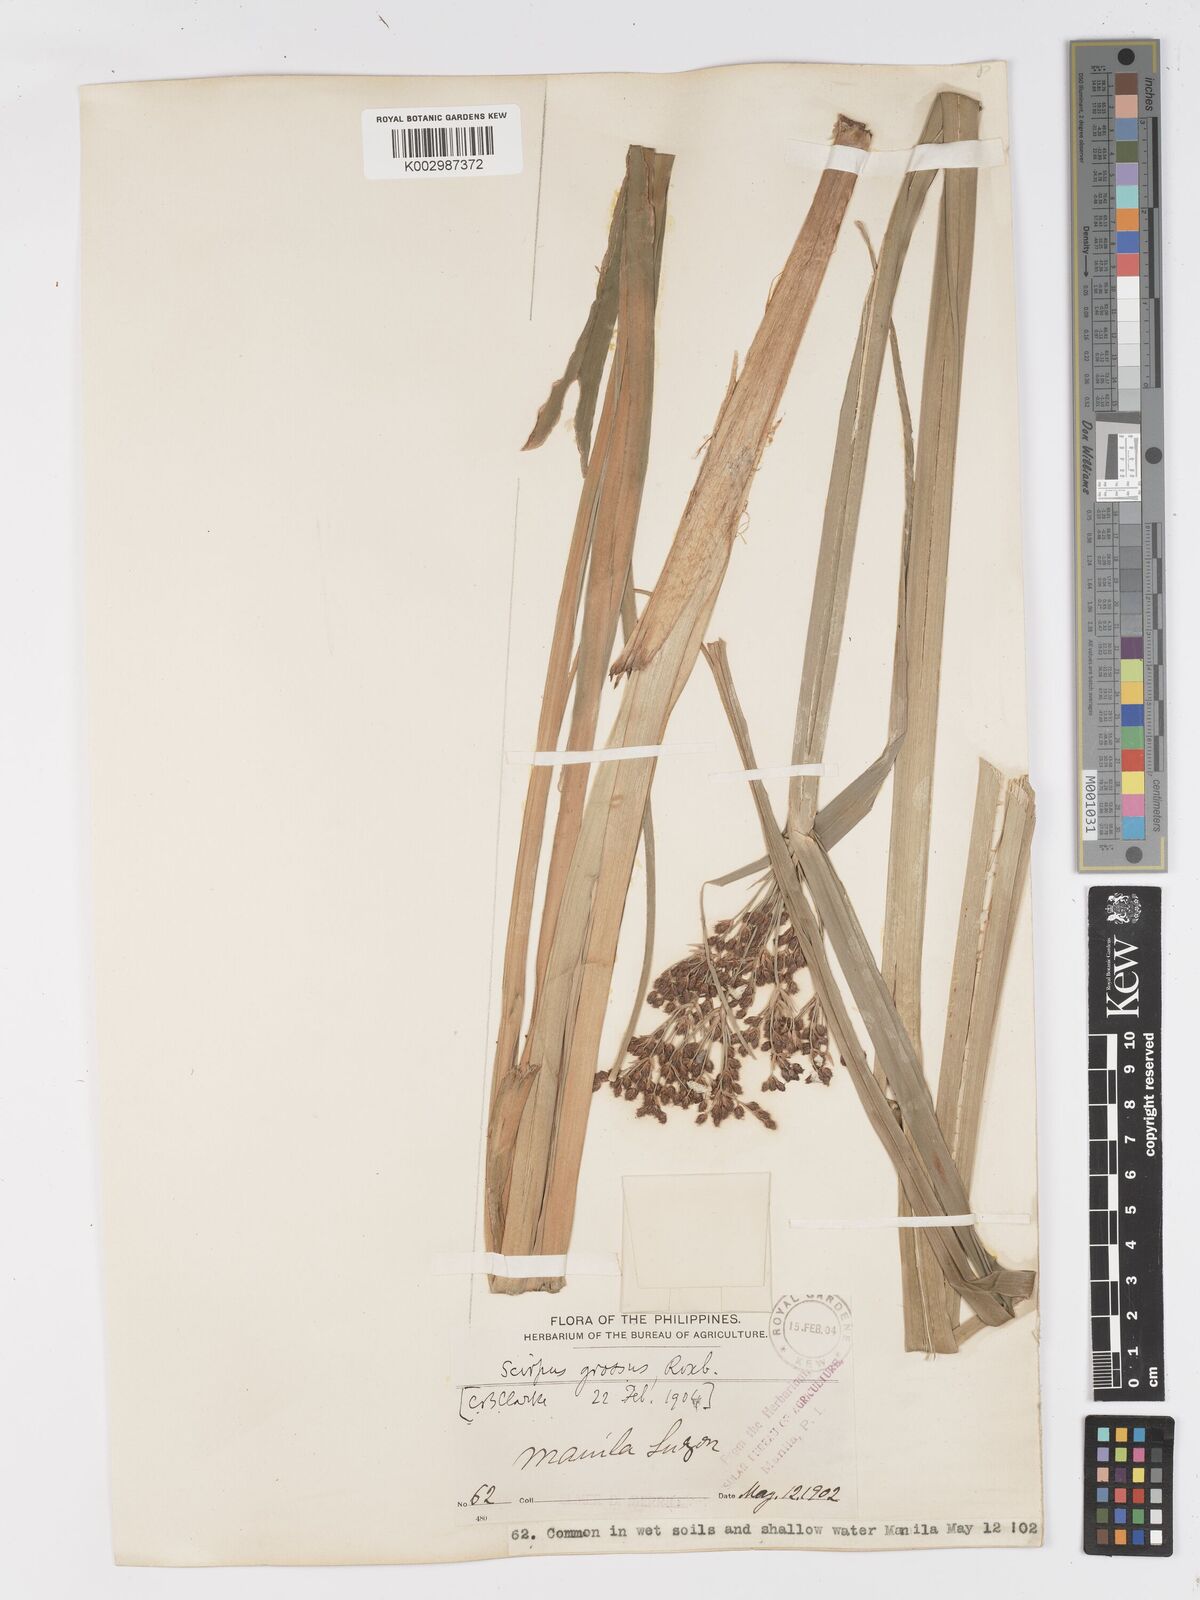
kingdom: Plantae
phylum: Tracheophyta
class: Liliopsida
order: Poales
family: Cyperaceae
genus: Actinoscirpus
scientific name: Actinoscirpus grossus
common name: Giant bur rush
